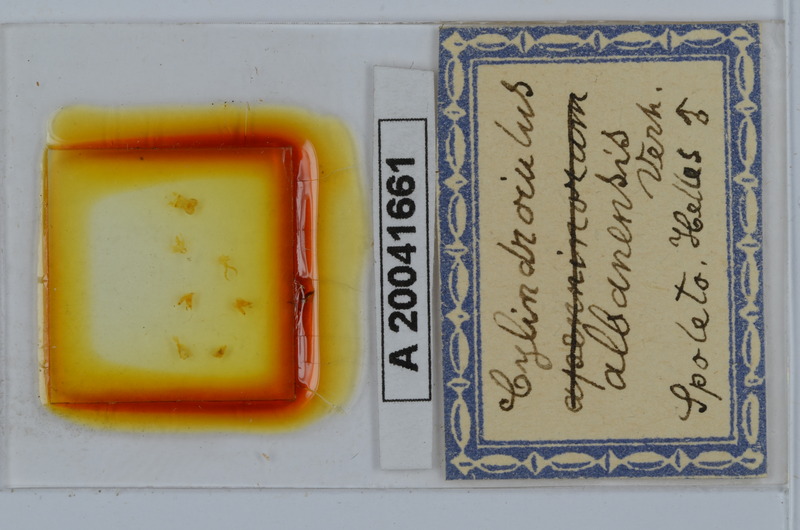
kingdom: Animalia
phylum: Arthropoda
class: Diplopoda
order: Julida
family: Julidae
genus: Cylindroiulus
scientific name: Cylindroiulus albanensis
